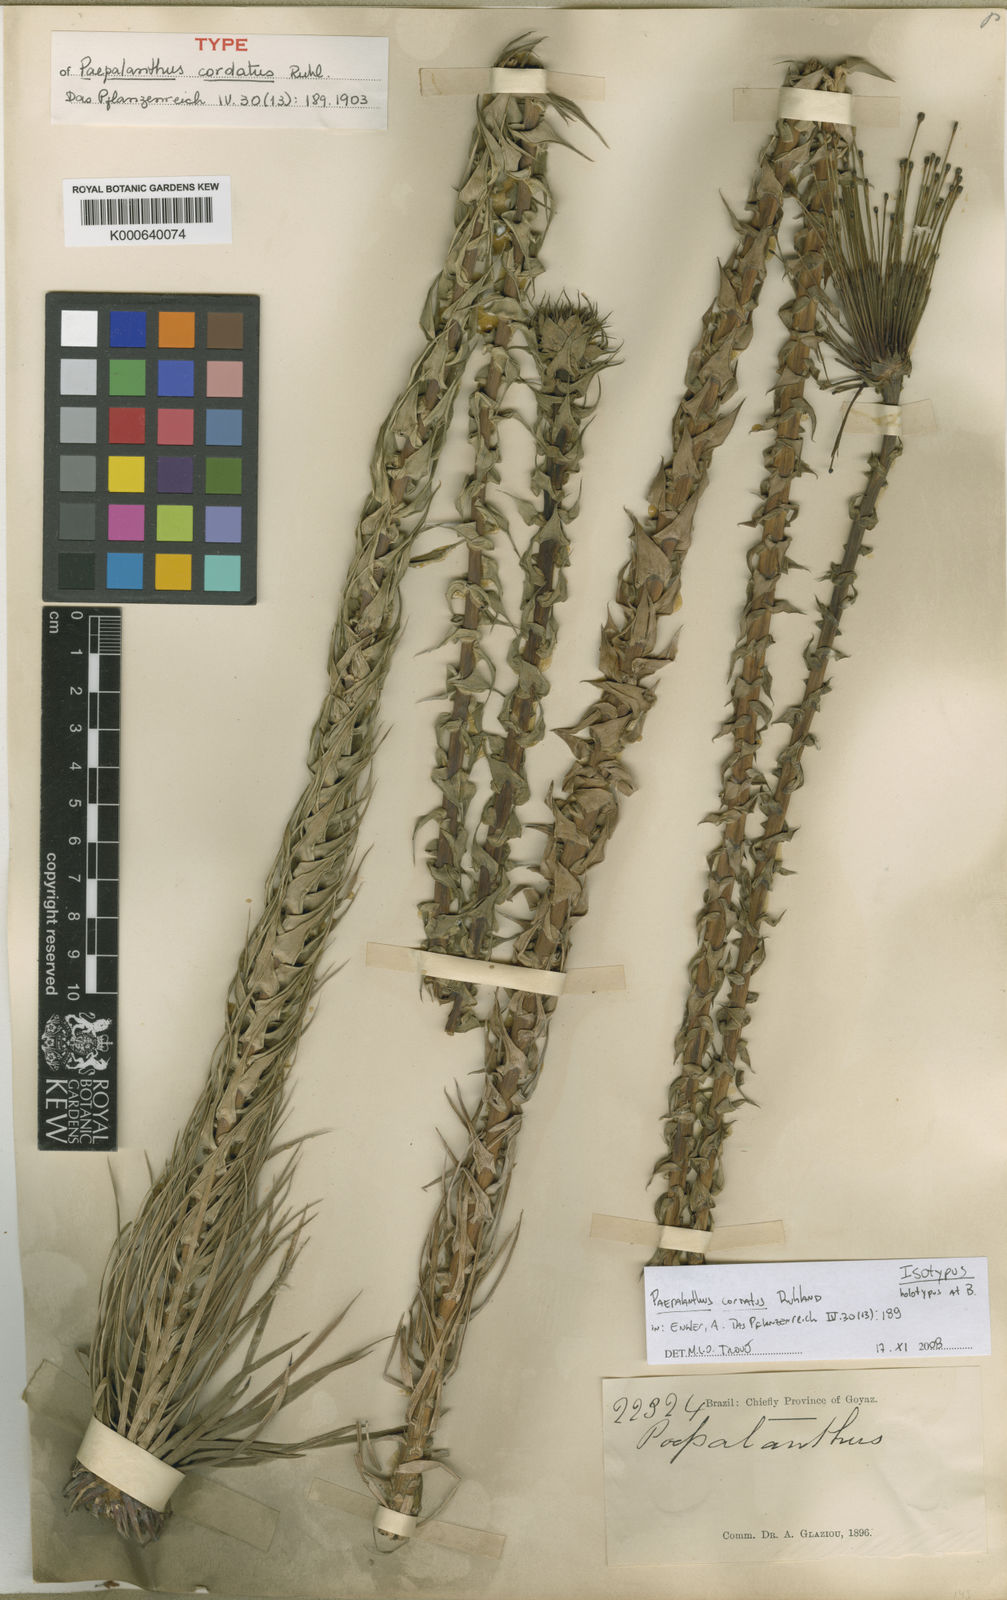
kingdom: Plantae
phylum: Tracheophyta
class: Liliopsida
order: Poales
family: Eriocaulaceae
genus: Paepalanthus
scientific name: Paepalanthus cordatus
